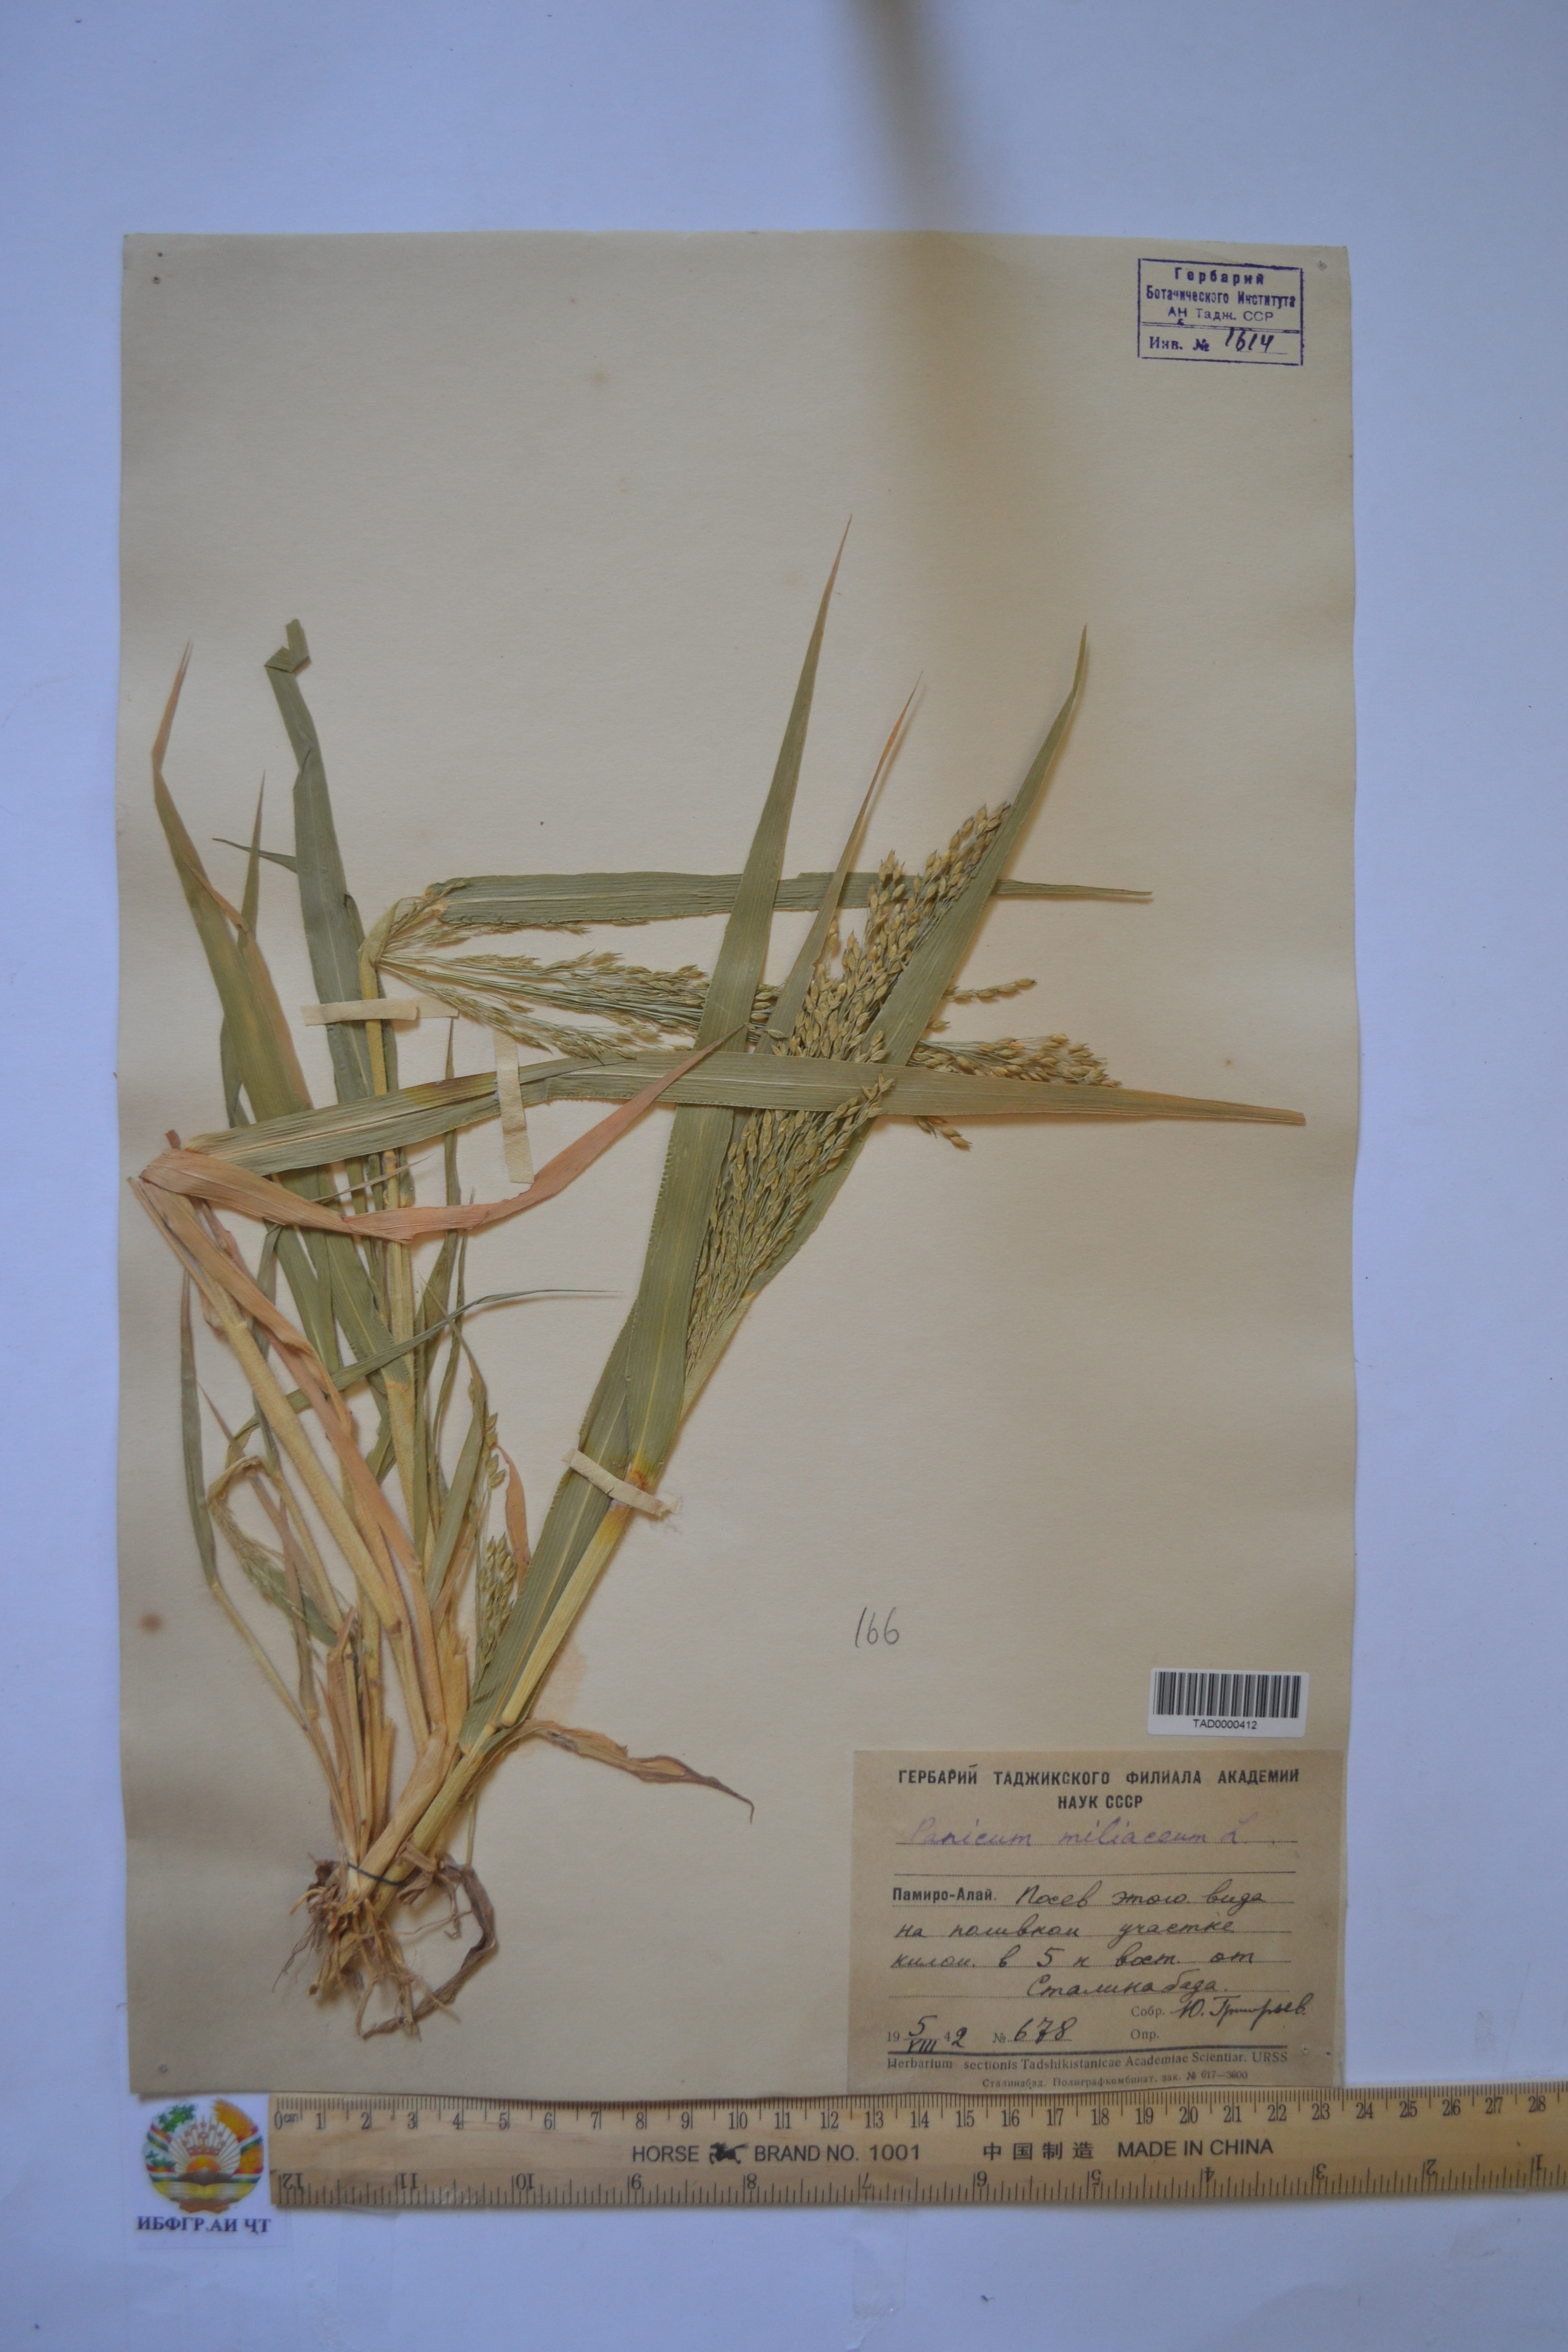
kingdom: Plantae
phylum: Tracheophyta
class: Liliopsida
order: Poales
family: Poaceae
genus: Panicum
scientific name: Panicum miliaceum
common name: Common millet
